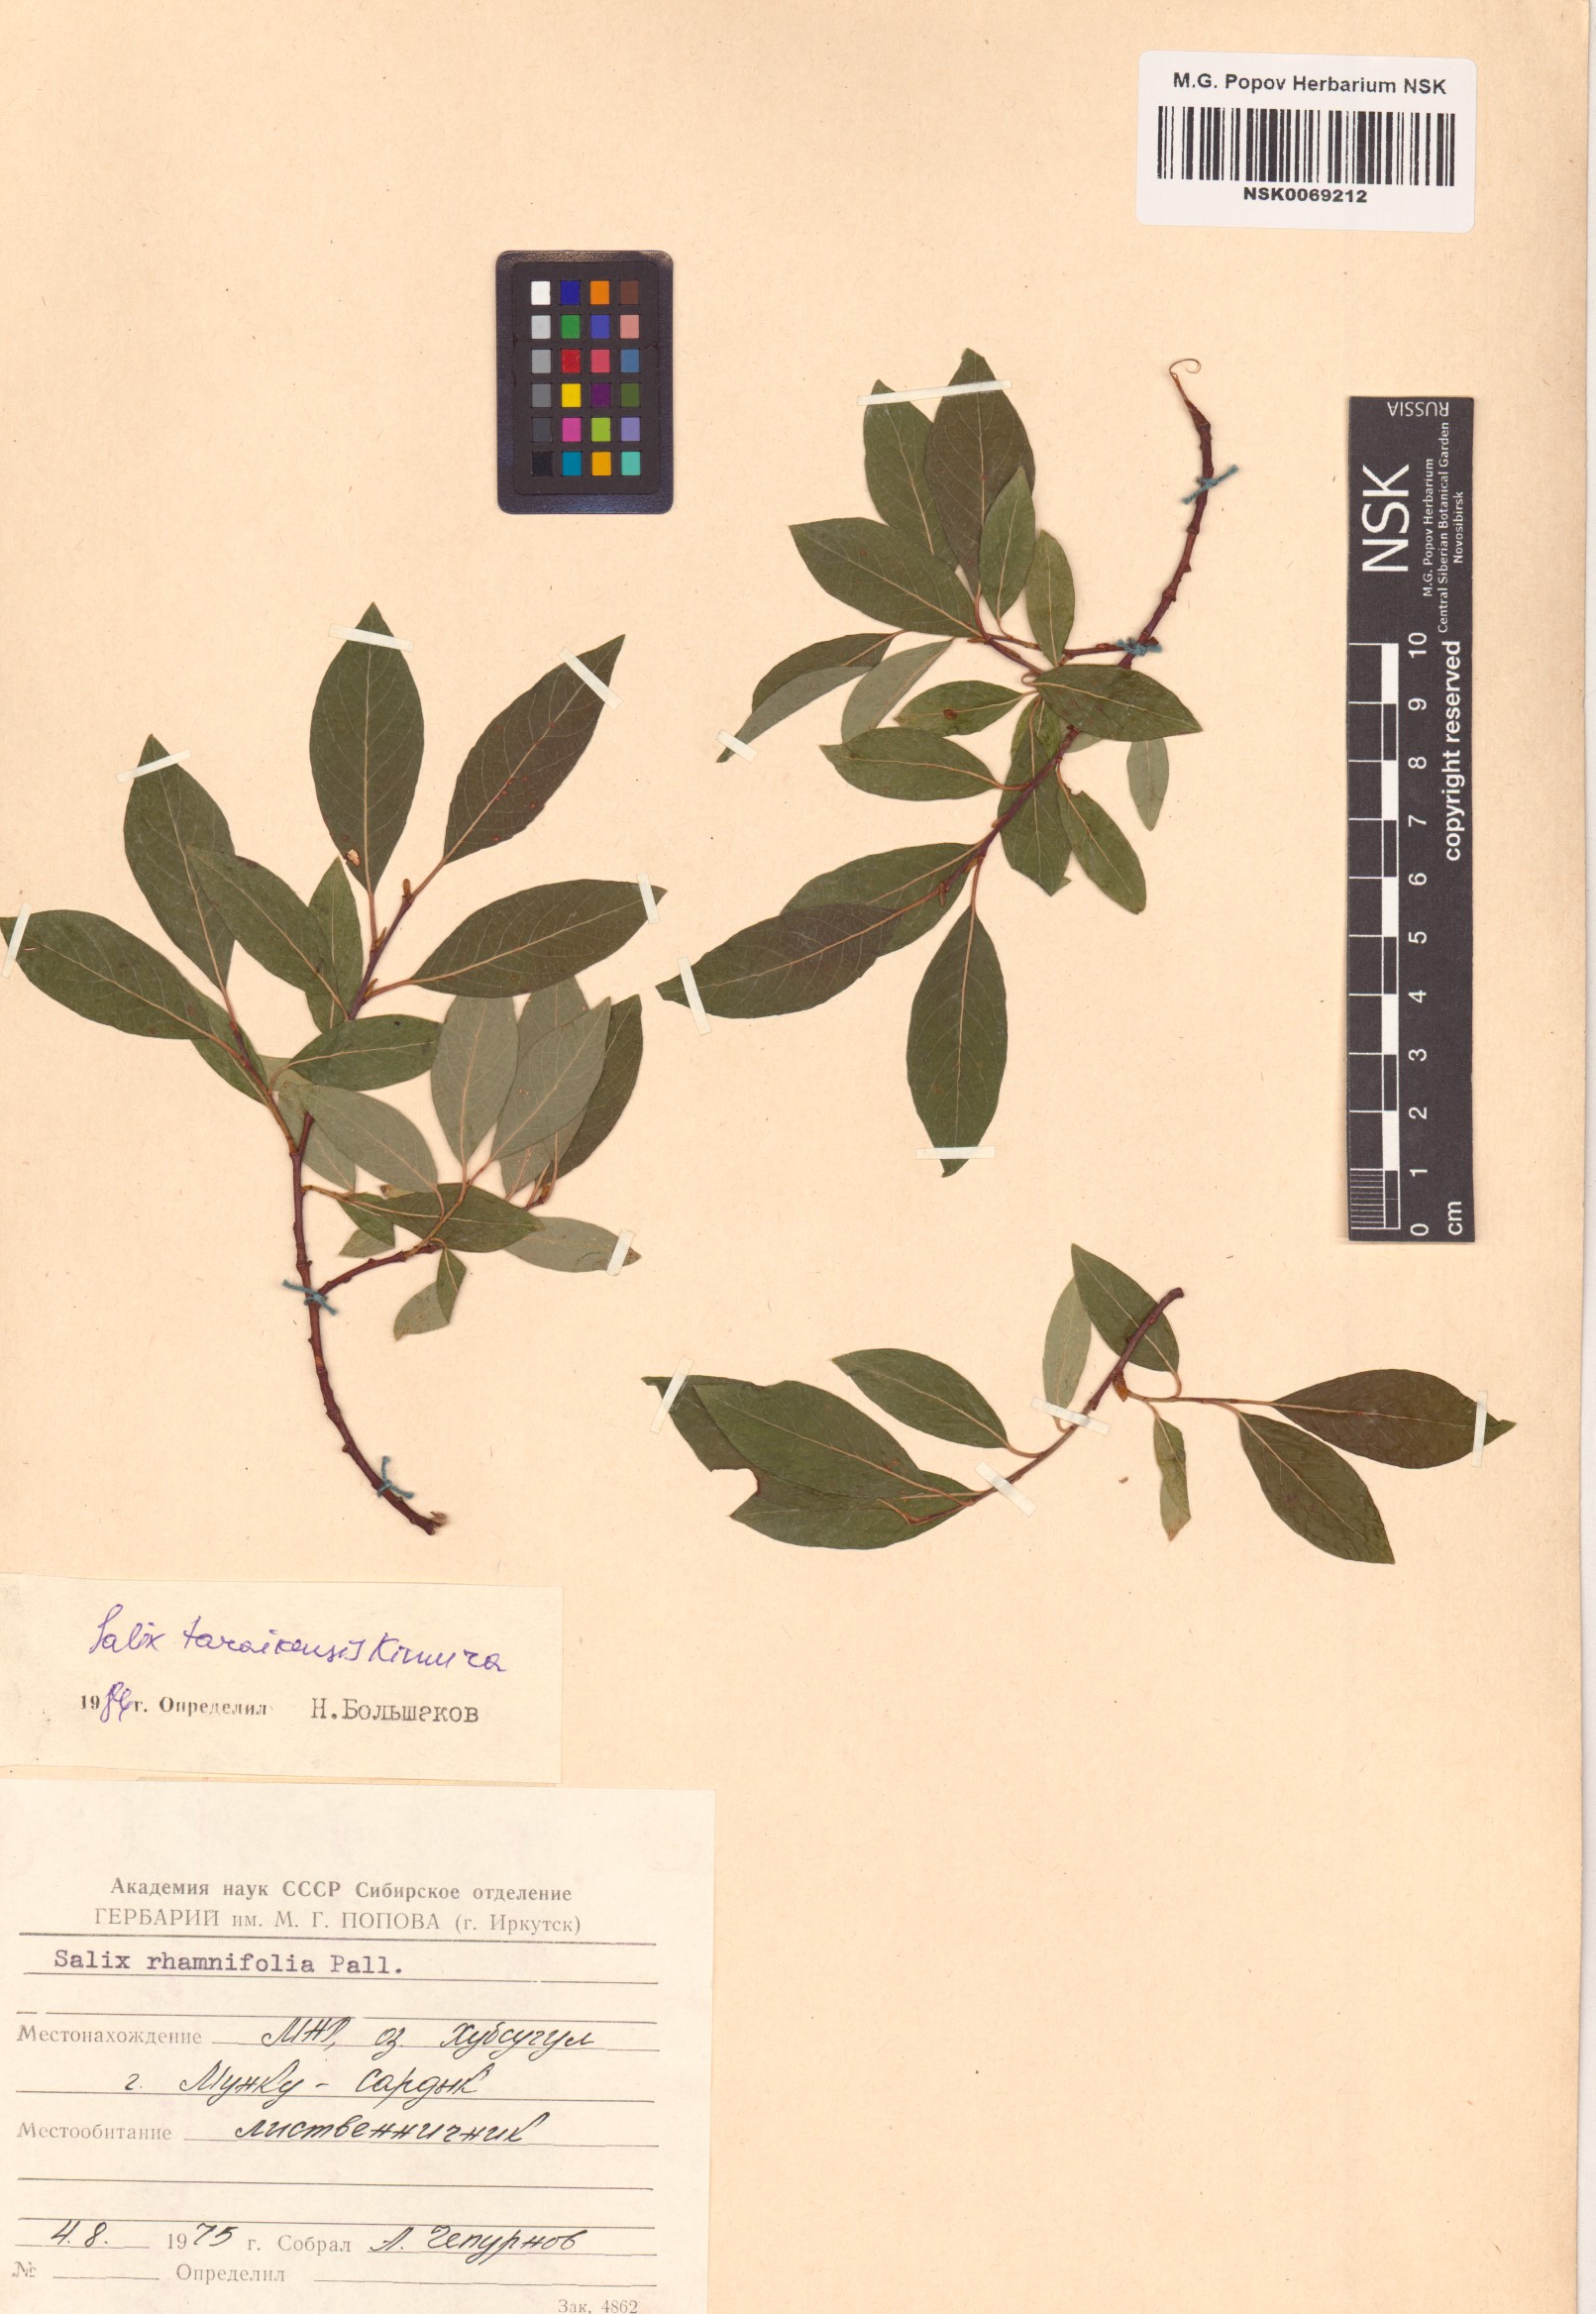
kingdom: Plantae
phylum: Tracheophyta
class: Magnoliopsida
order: Malpighiales
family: Salicaceae
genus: Salix
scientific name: Salix taraikensis
